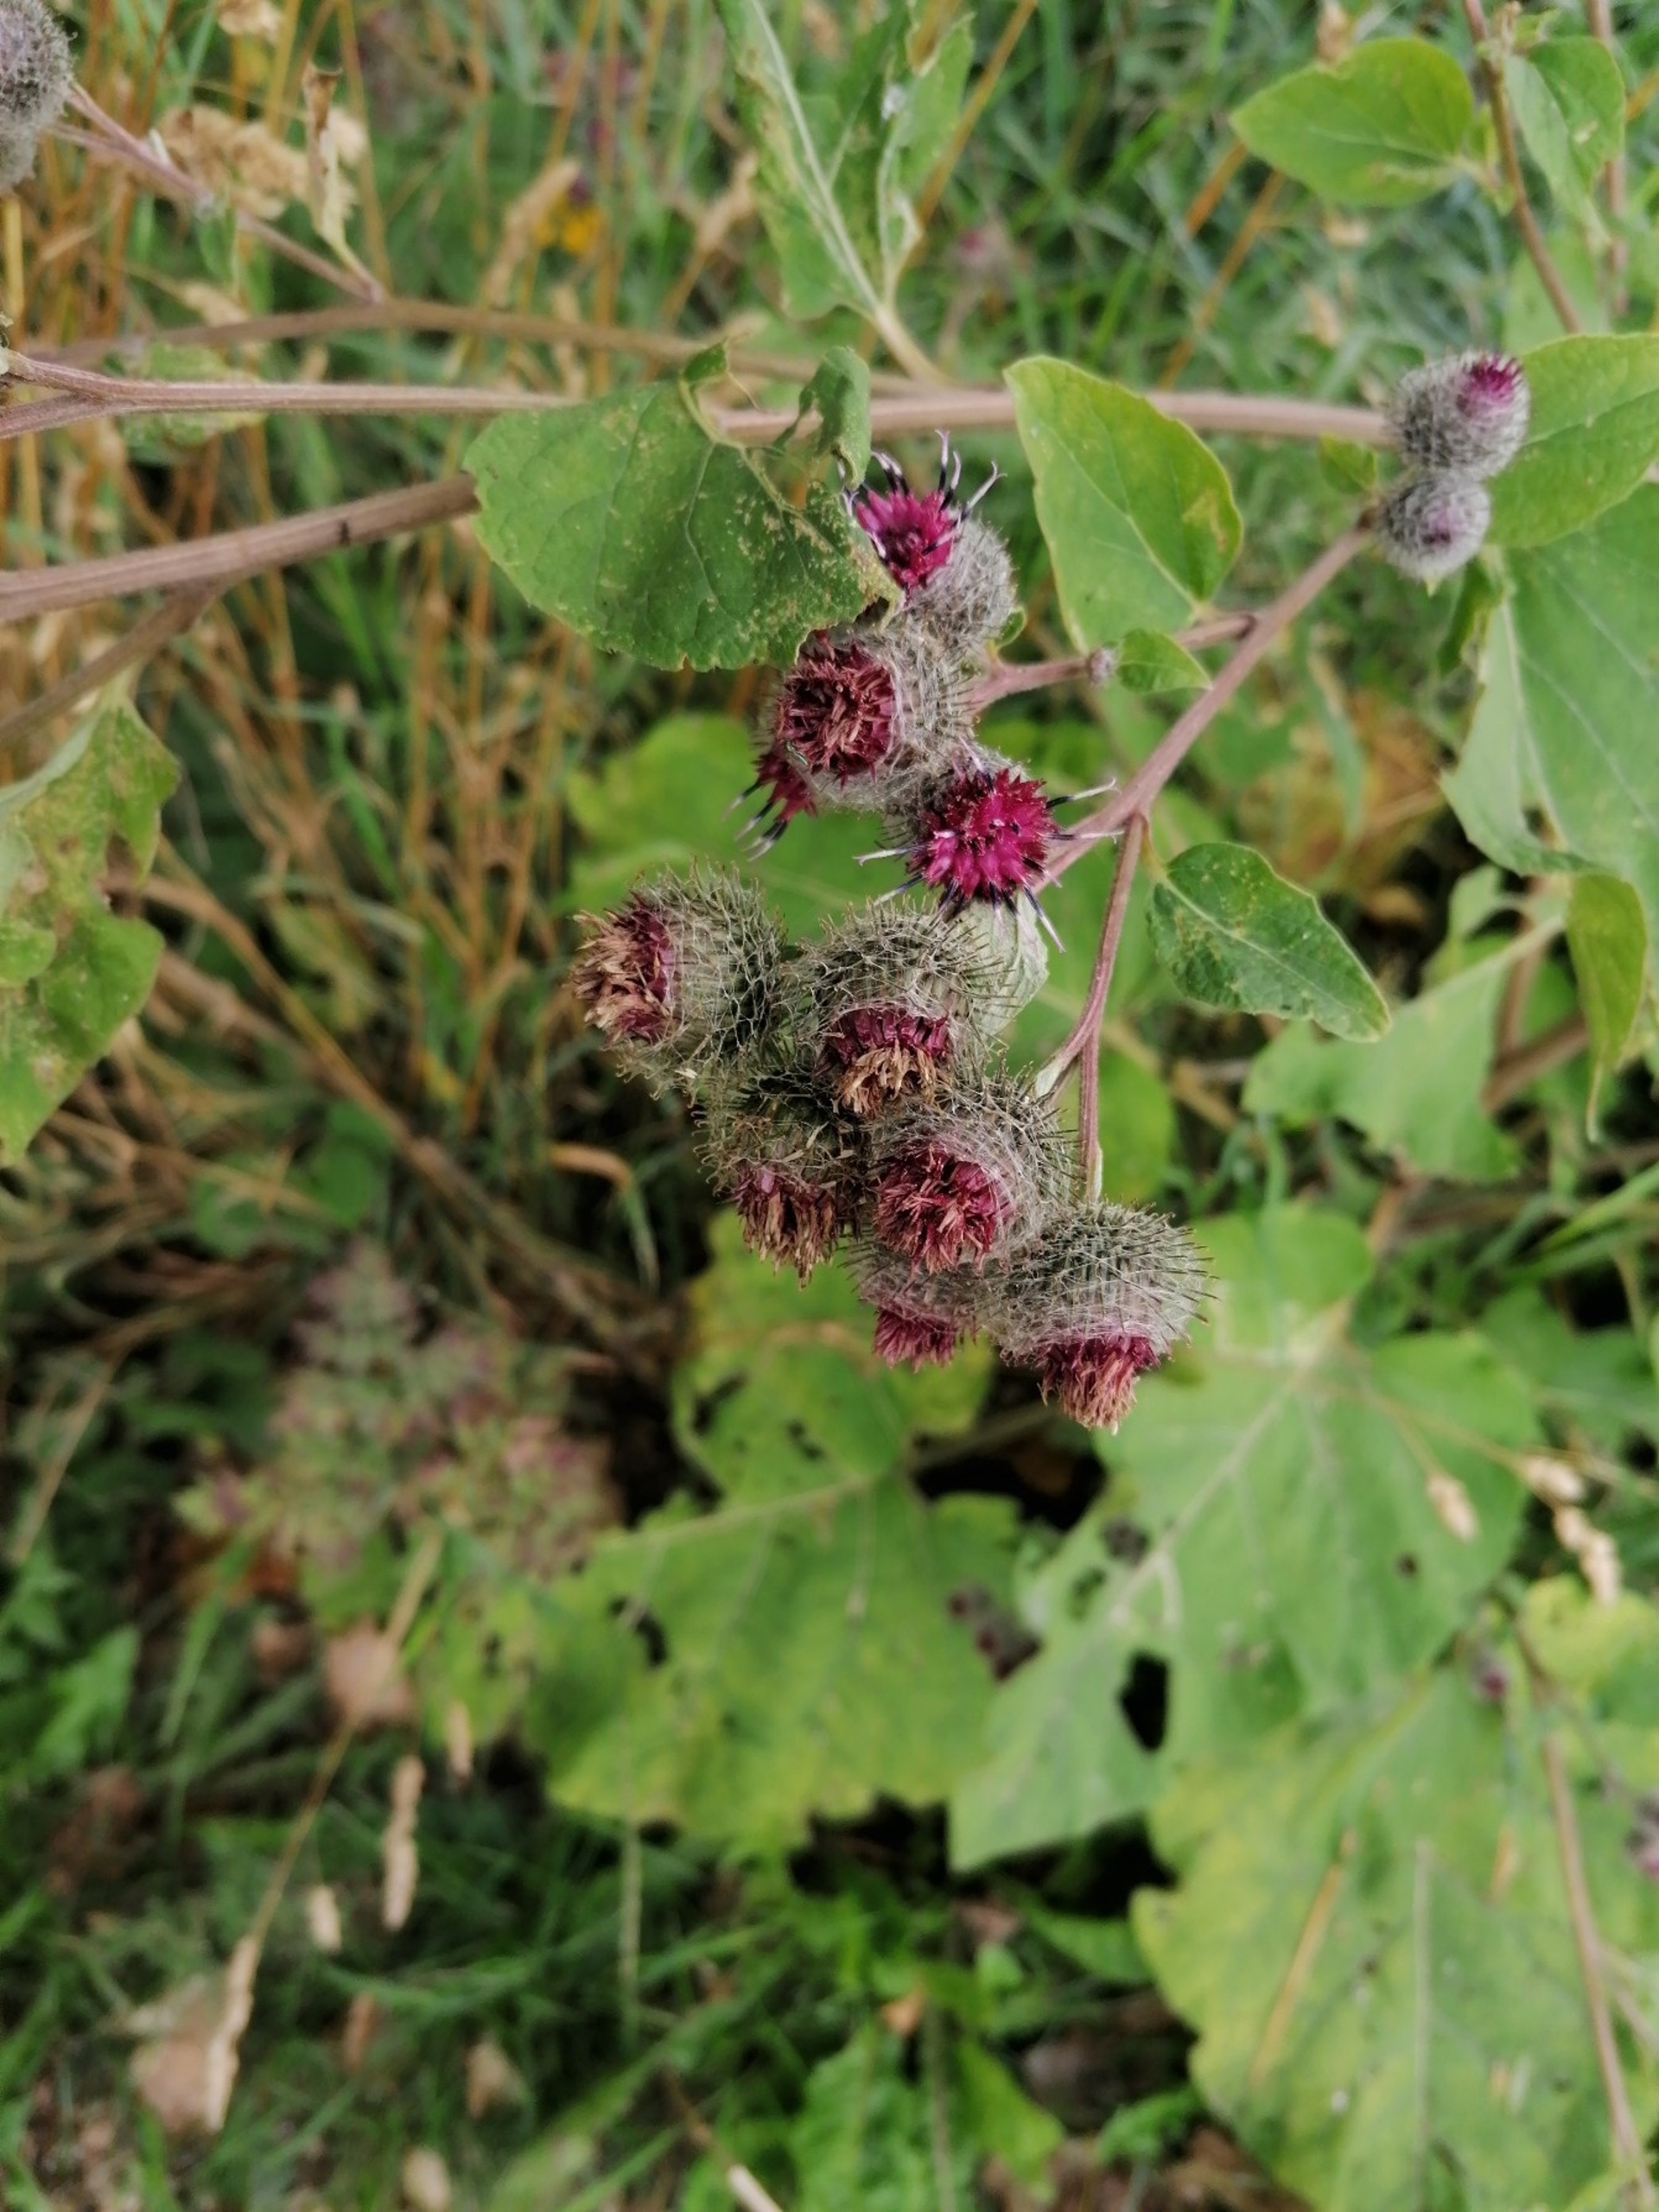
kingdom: Plantae
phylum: Tracheophyta
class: Magnoliopsida
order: Asterales
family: Asteraceae
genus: Arctium
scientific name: Arctium tomentosum
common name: Filtet burre
